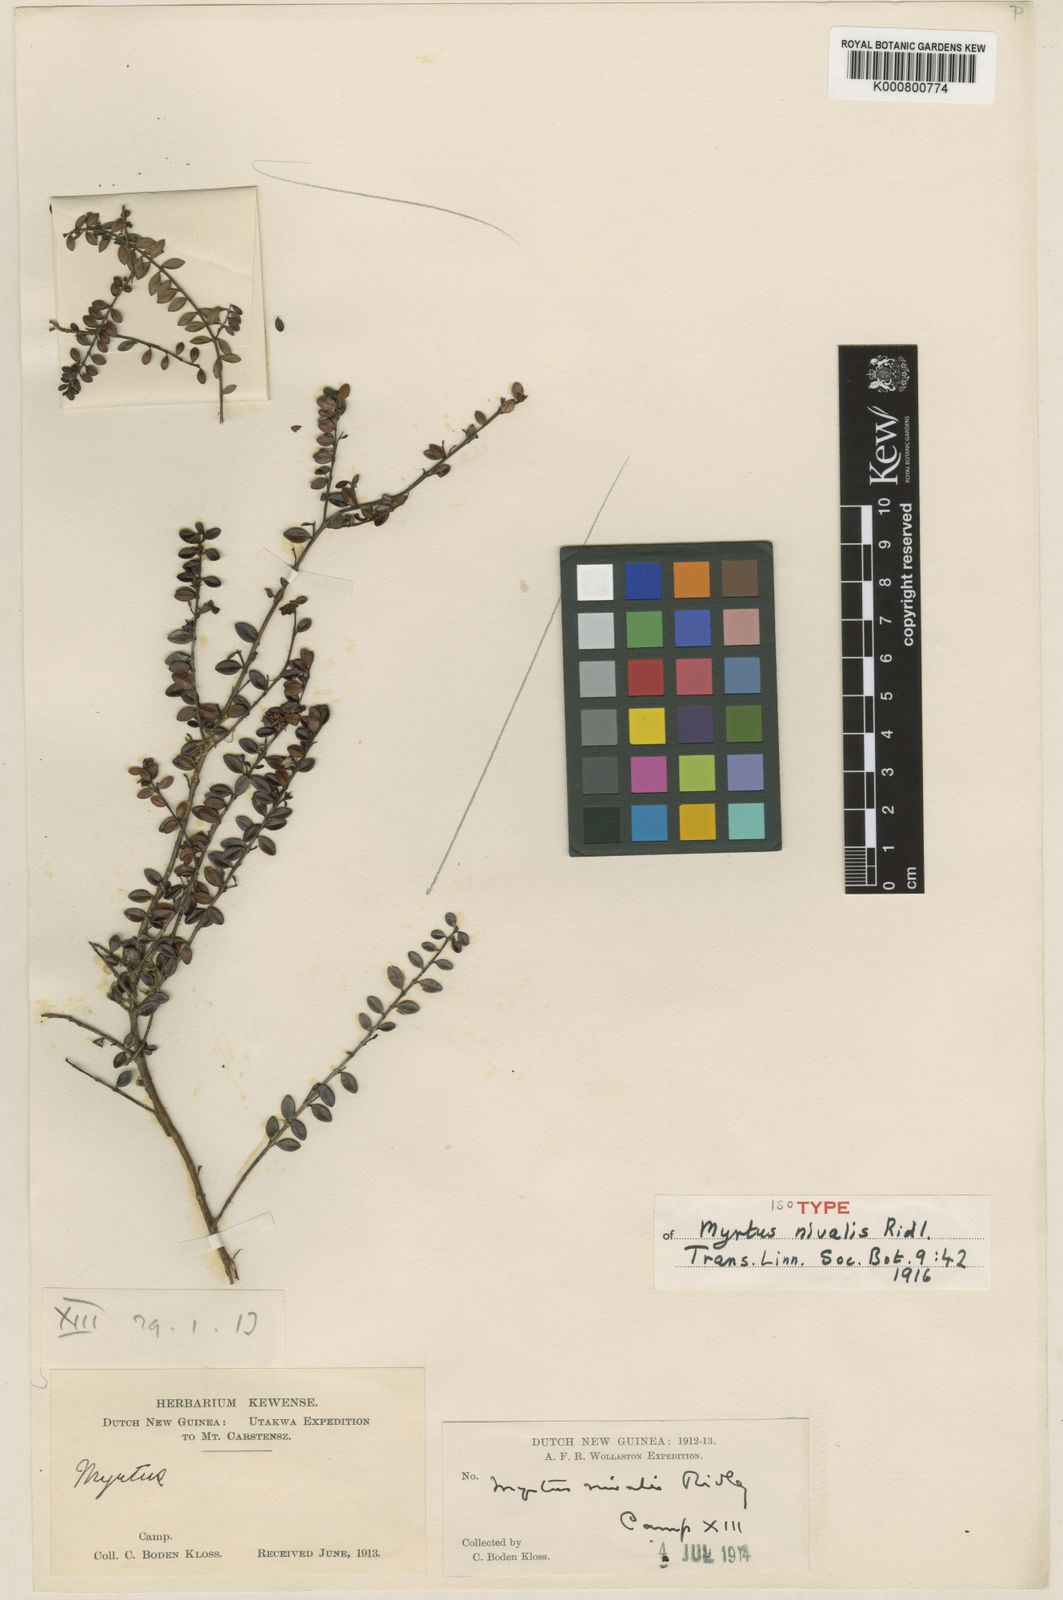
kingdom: Plantae
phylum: Tracheophyta
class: Magnoliopsida
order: Myrtales
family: Myrtaceae
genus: Decaspermum
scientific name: Decaspermum nivale
